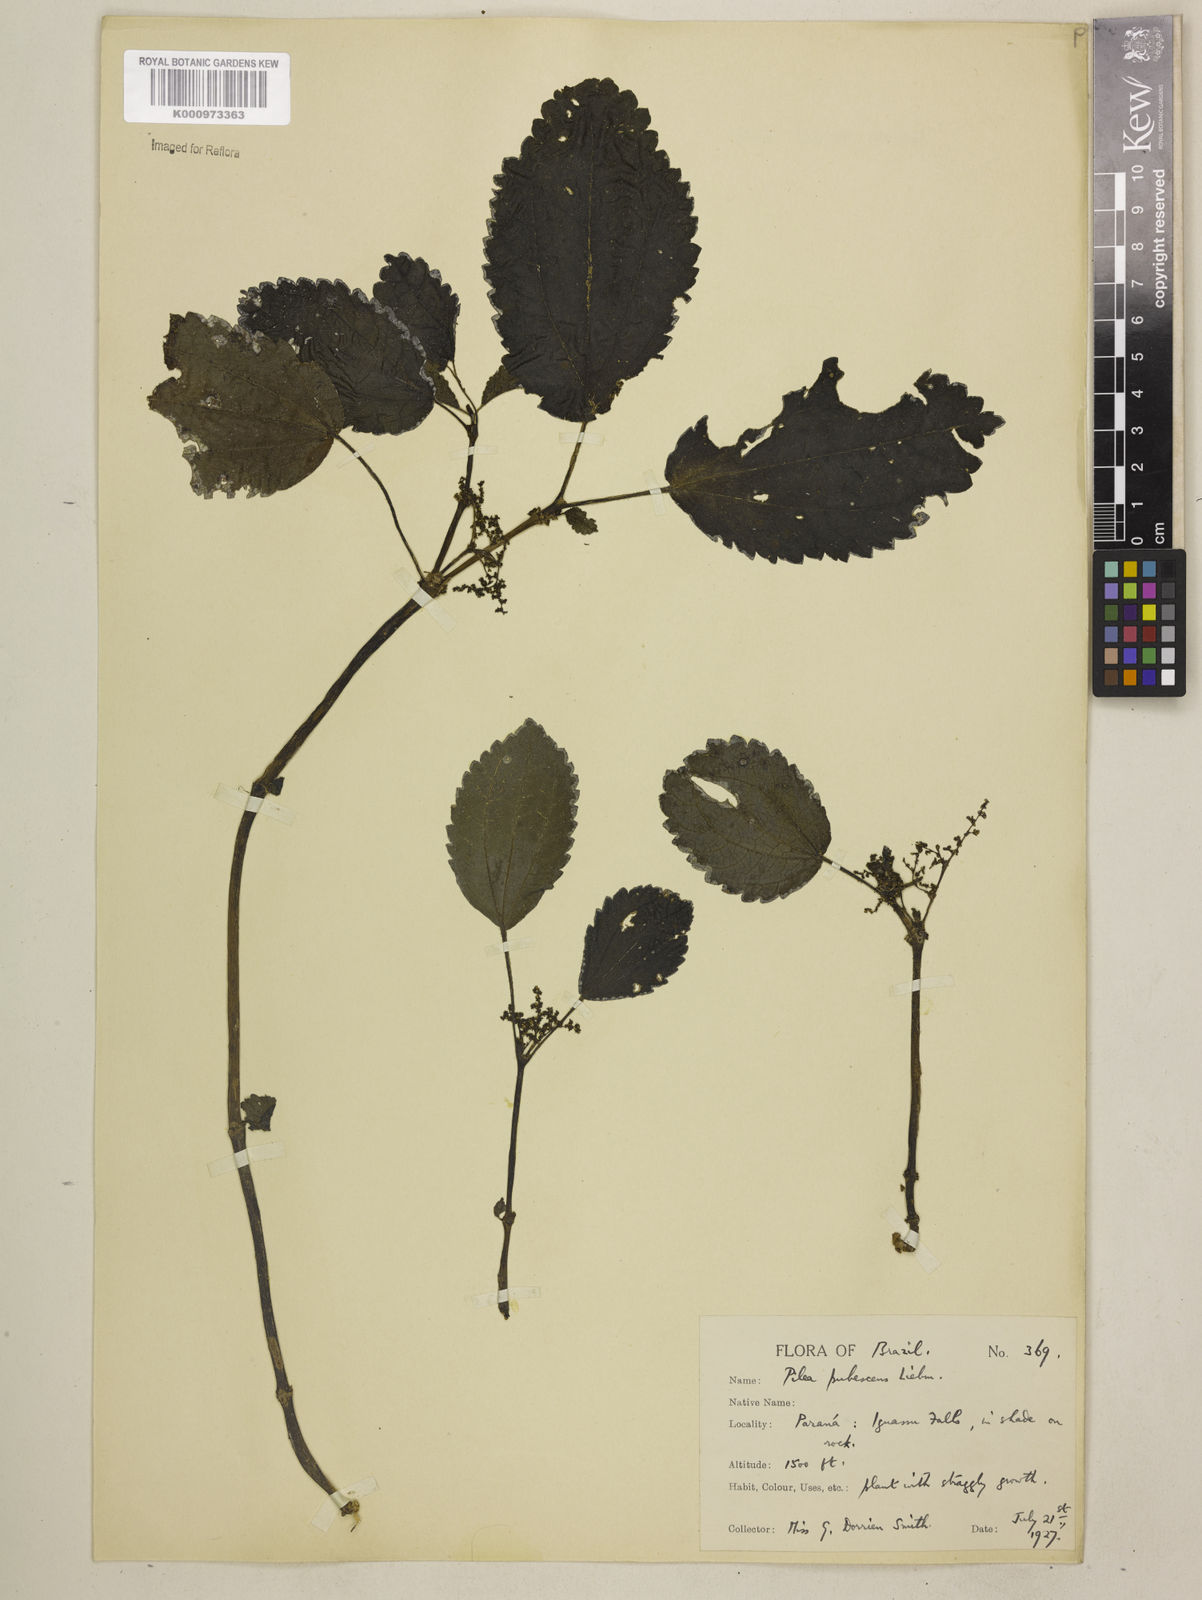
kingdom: Plantae
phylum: Tracheophyta
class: Magnoliopsida
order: Rosales
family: Urticaceae
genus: Pilea
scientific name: Pilea
